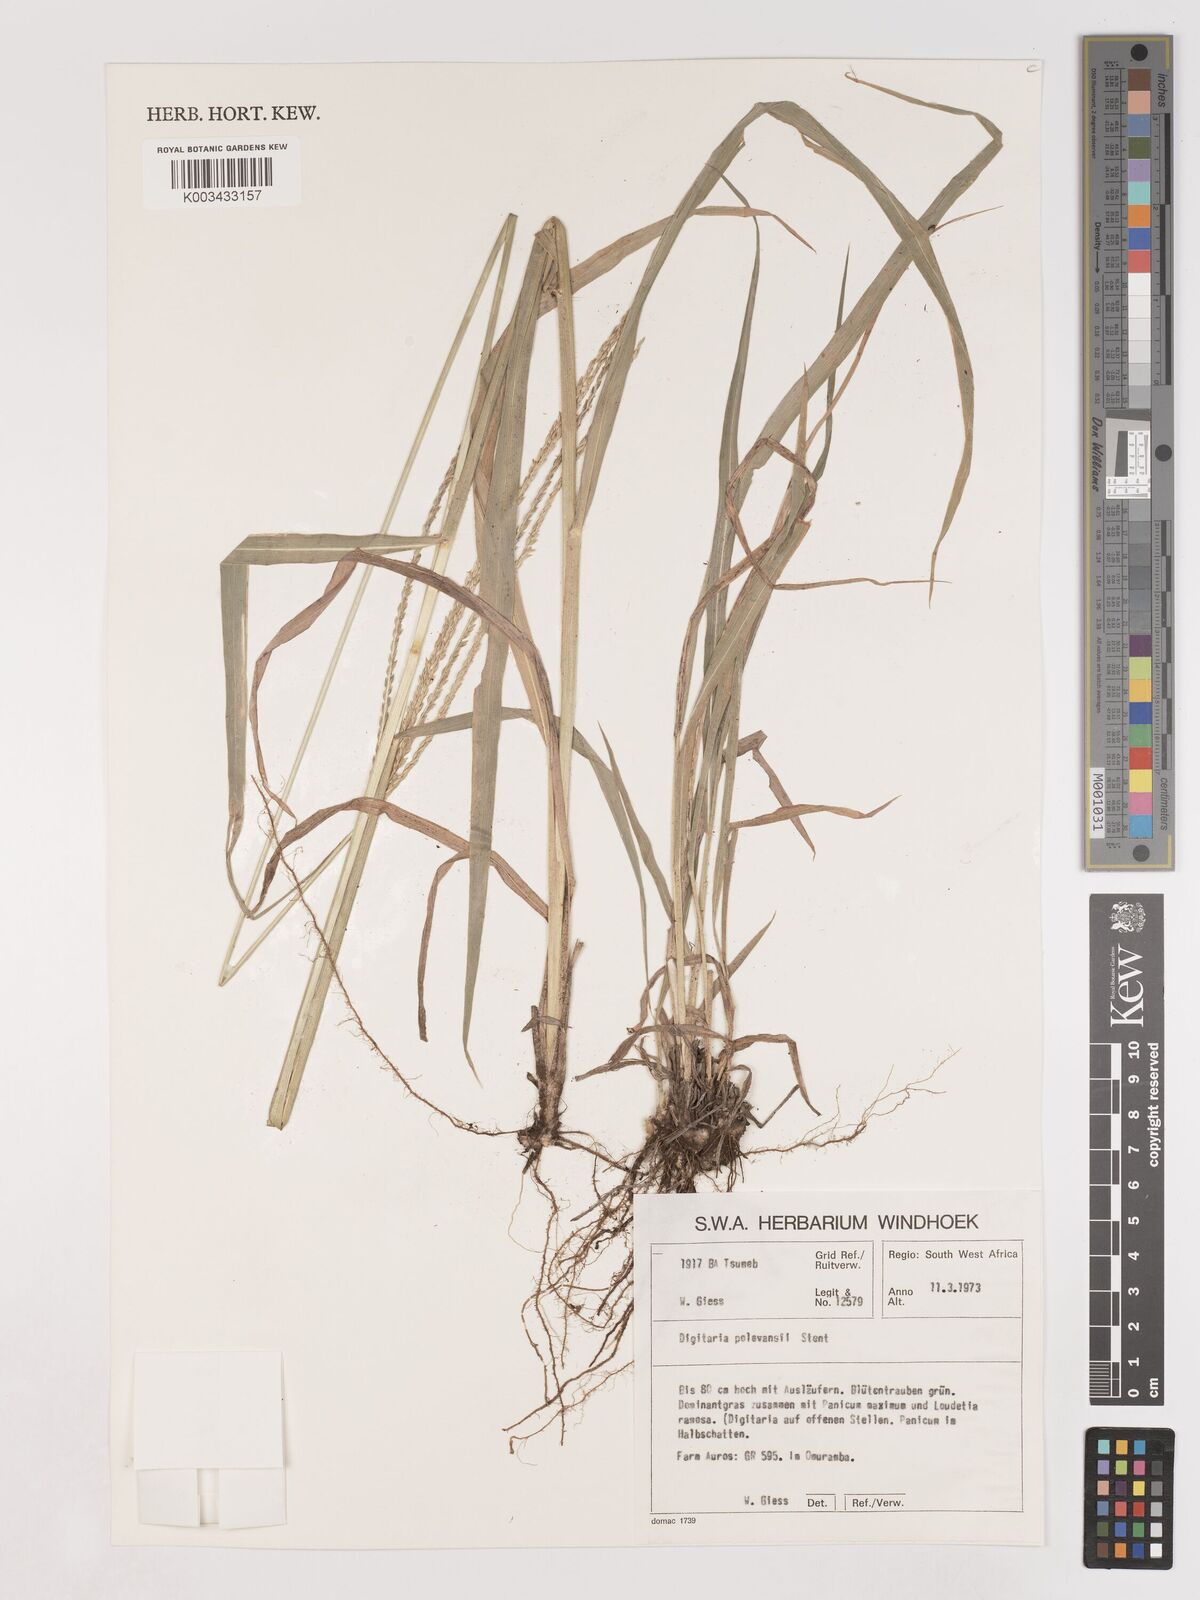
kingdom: Plantae
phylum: Tracheophyta
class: Liliopsida
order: Poales
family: Poaceae
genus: Digitaria
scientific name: Digitaria milanjiana
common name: Madagascar crabgrass
